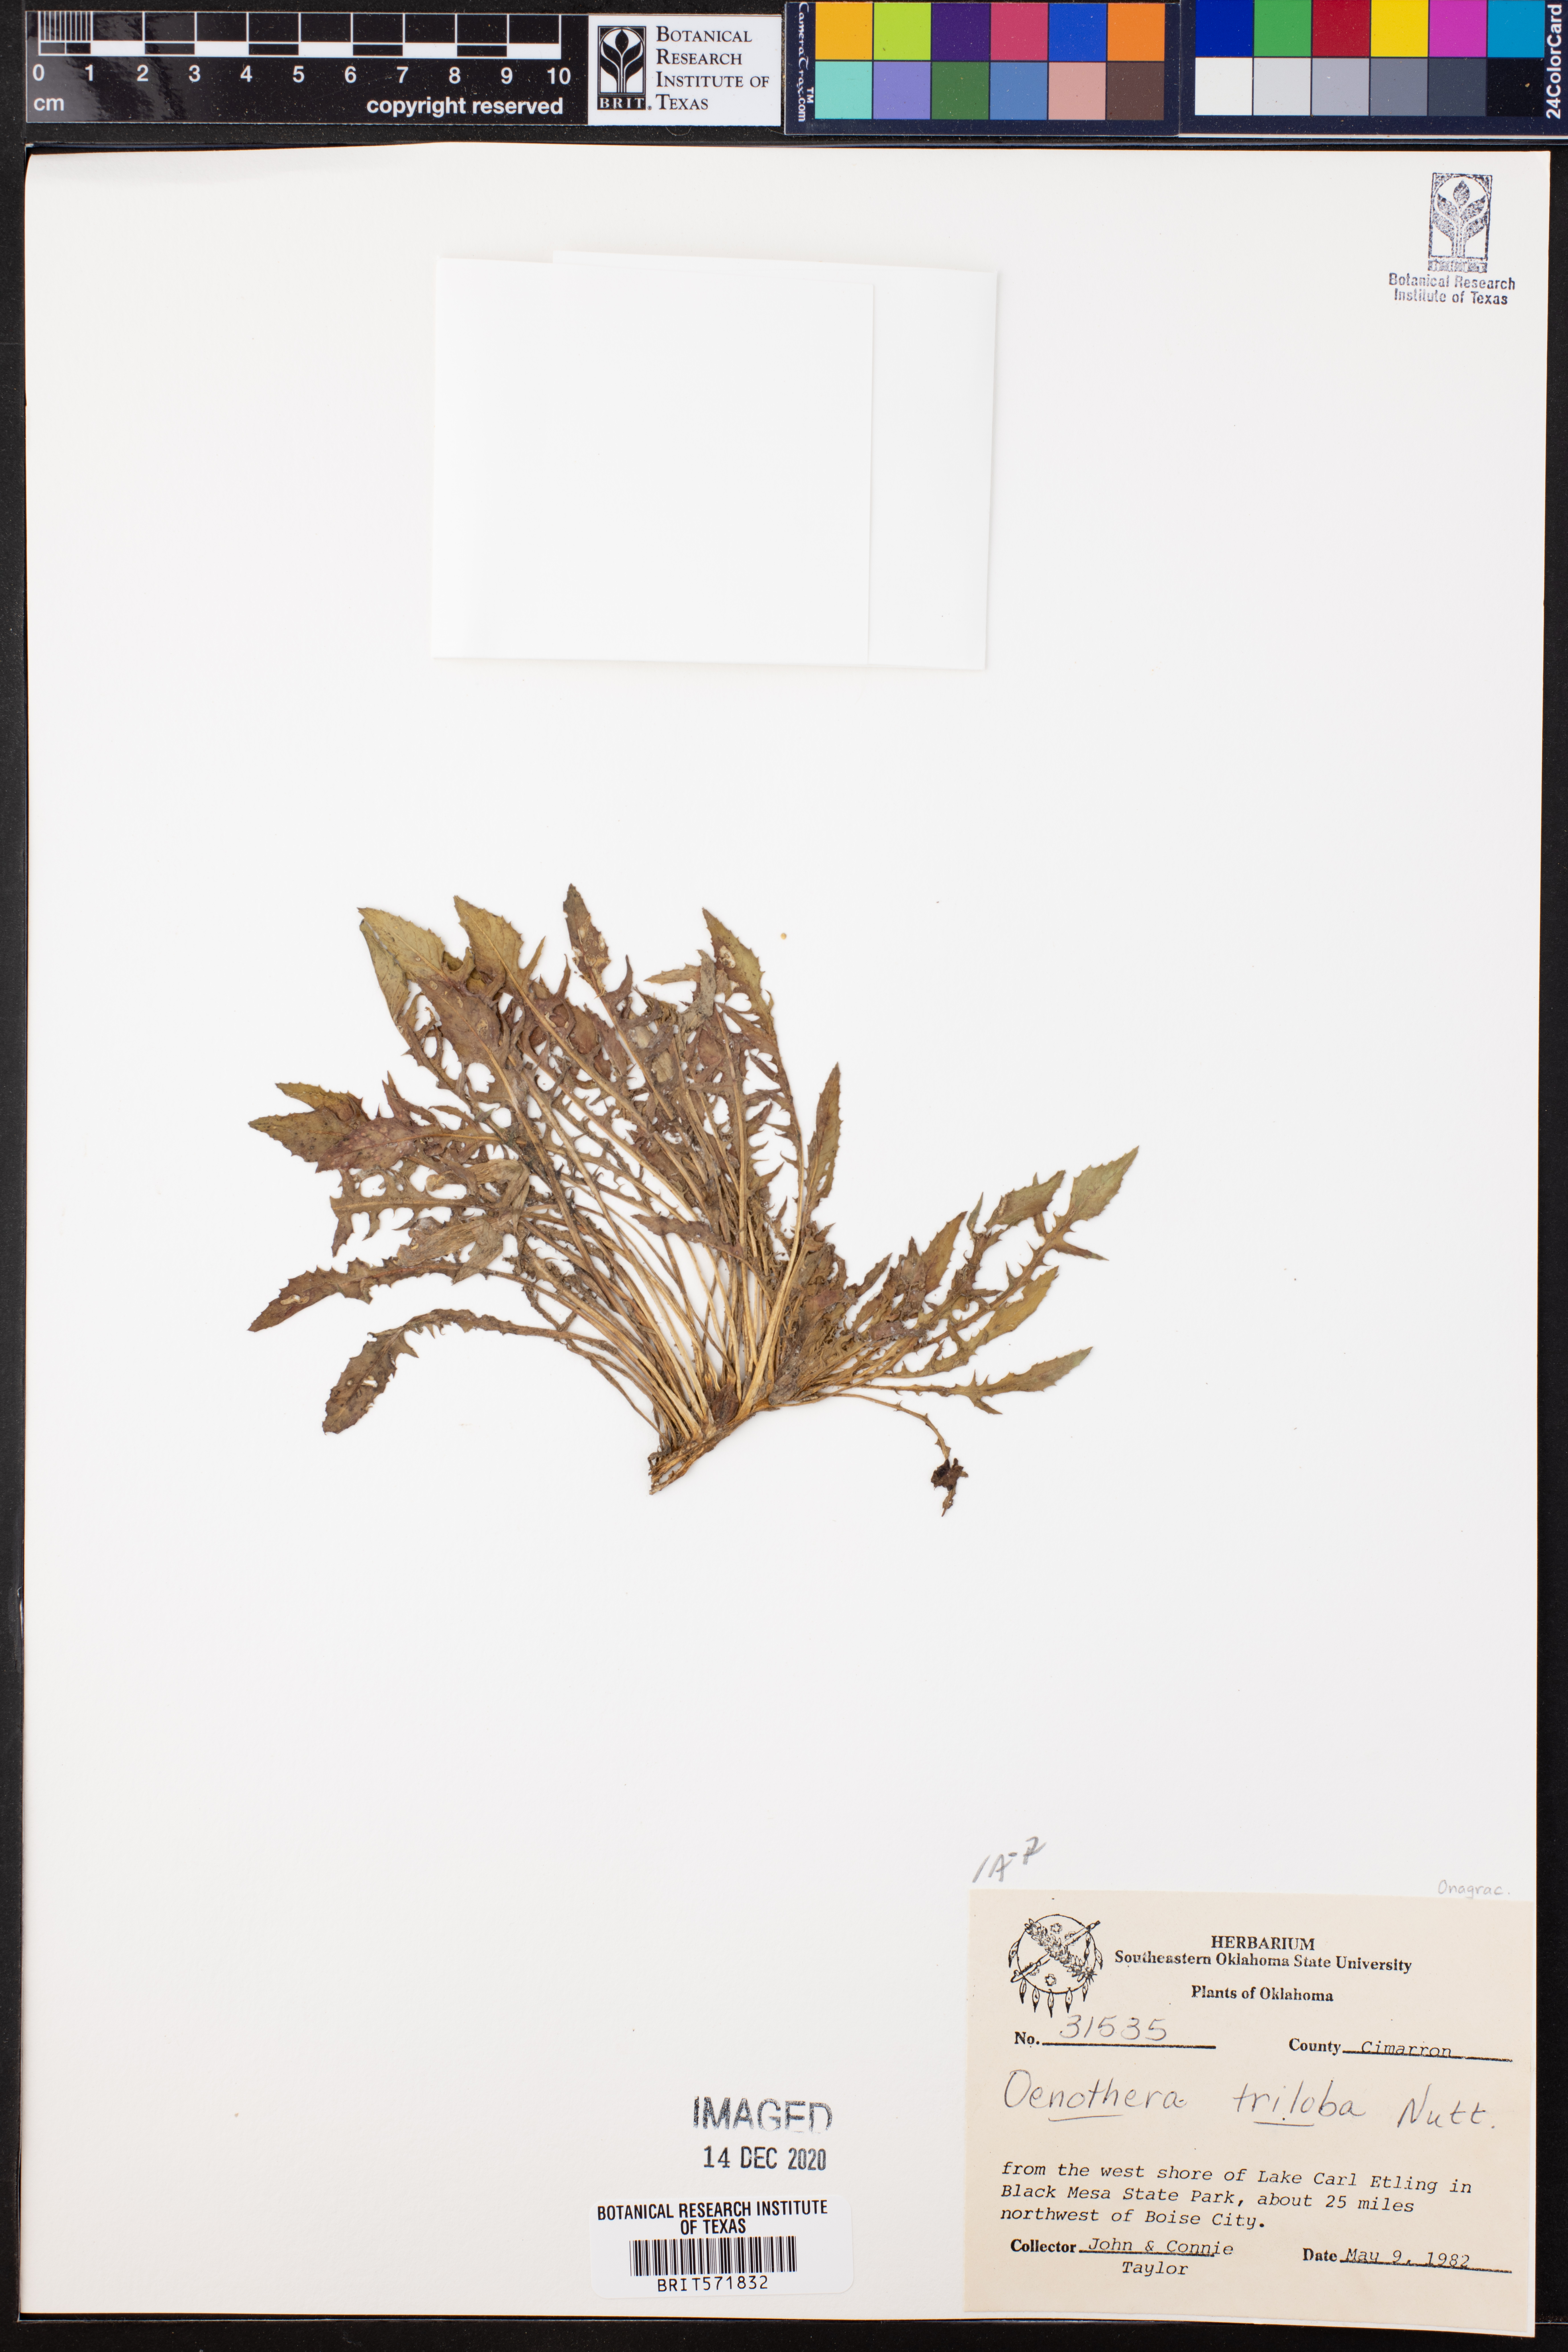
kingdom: Plantae
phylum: Tracheophyta
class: Magnoliopsida
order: Myrtales
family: Onagraceae
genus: Oenothera
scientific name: Oenothera triloba
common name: Sessile evening-primrose
